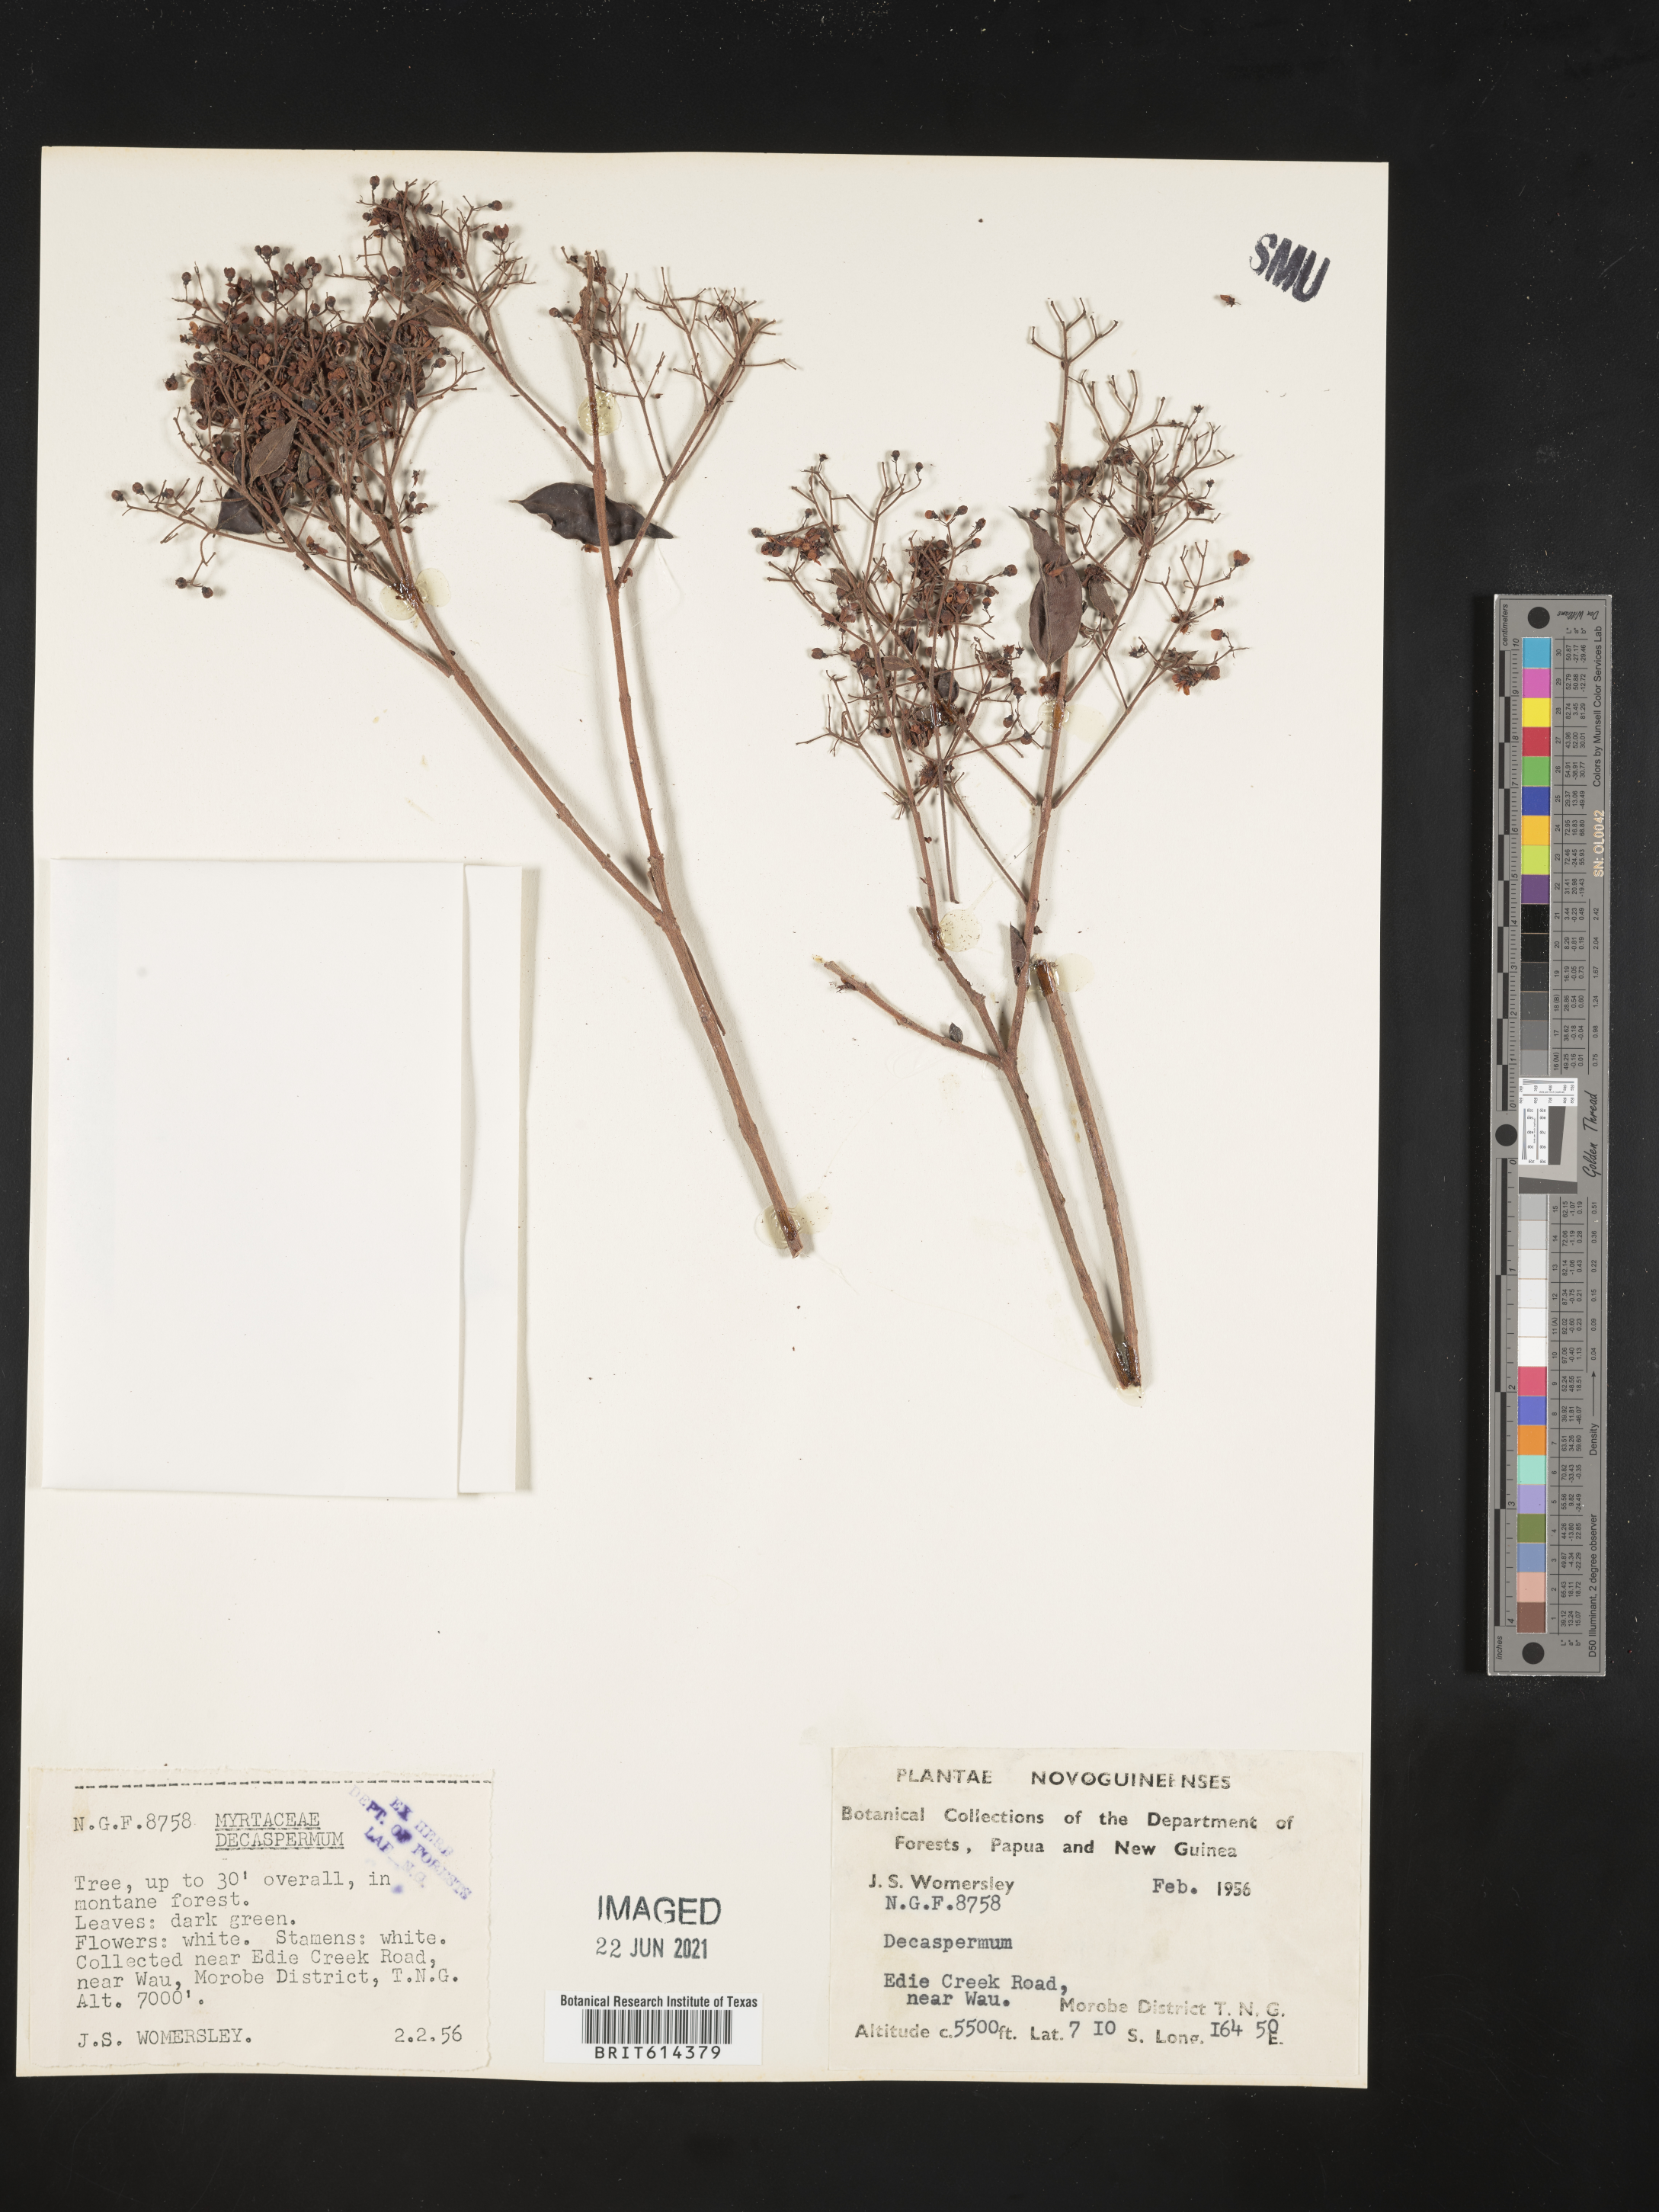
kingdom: Plantae
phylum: Tracheophyta
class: Magnoliopsida
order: Myrtales
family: Myrtaceae
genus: Decaspermum
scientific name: Decaspermum
